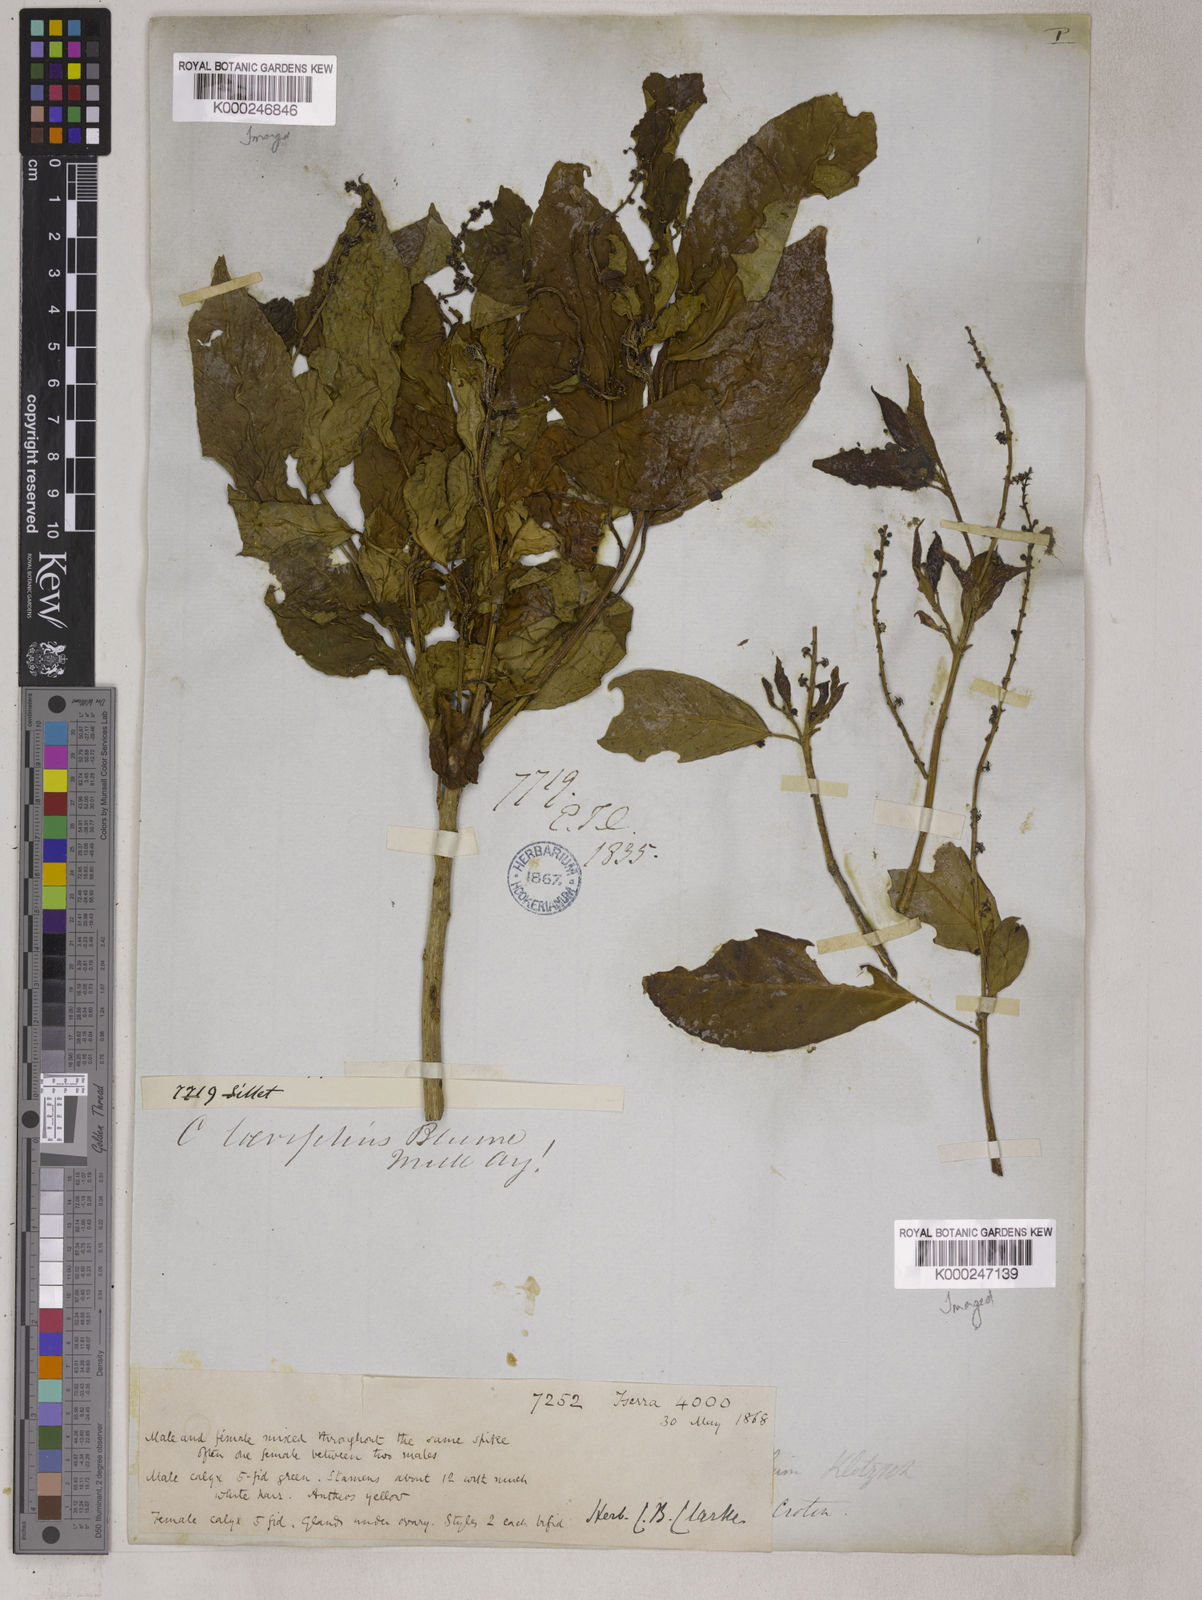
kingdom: Plantae
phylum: Tracheophyta
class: Magnoliopsida
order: Malpighiales
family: Euphorbiaceae
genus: Croton
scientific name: Croton
